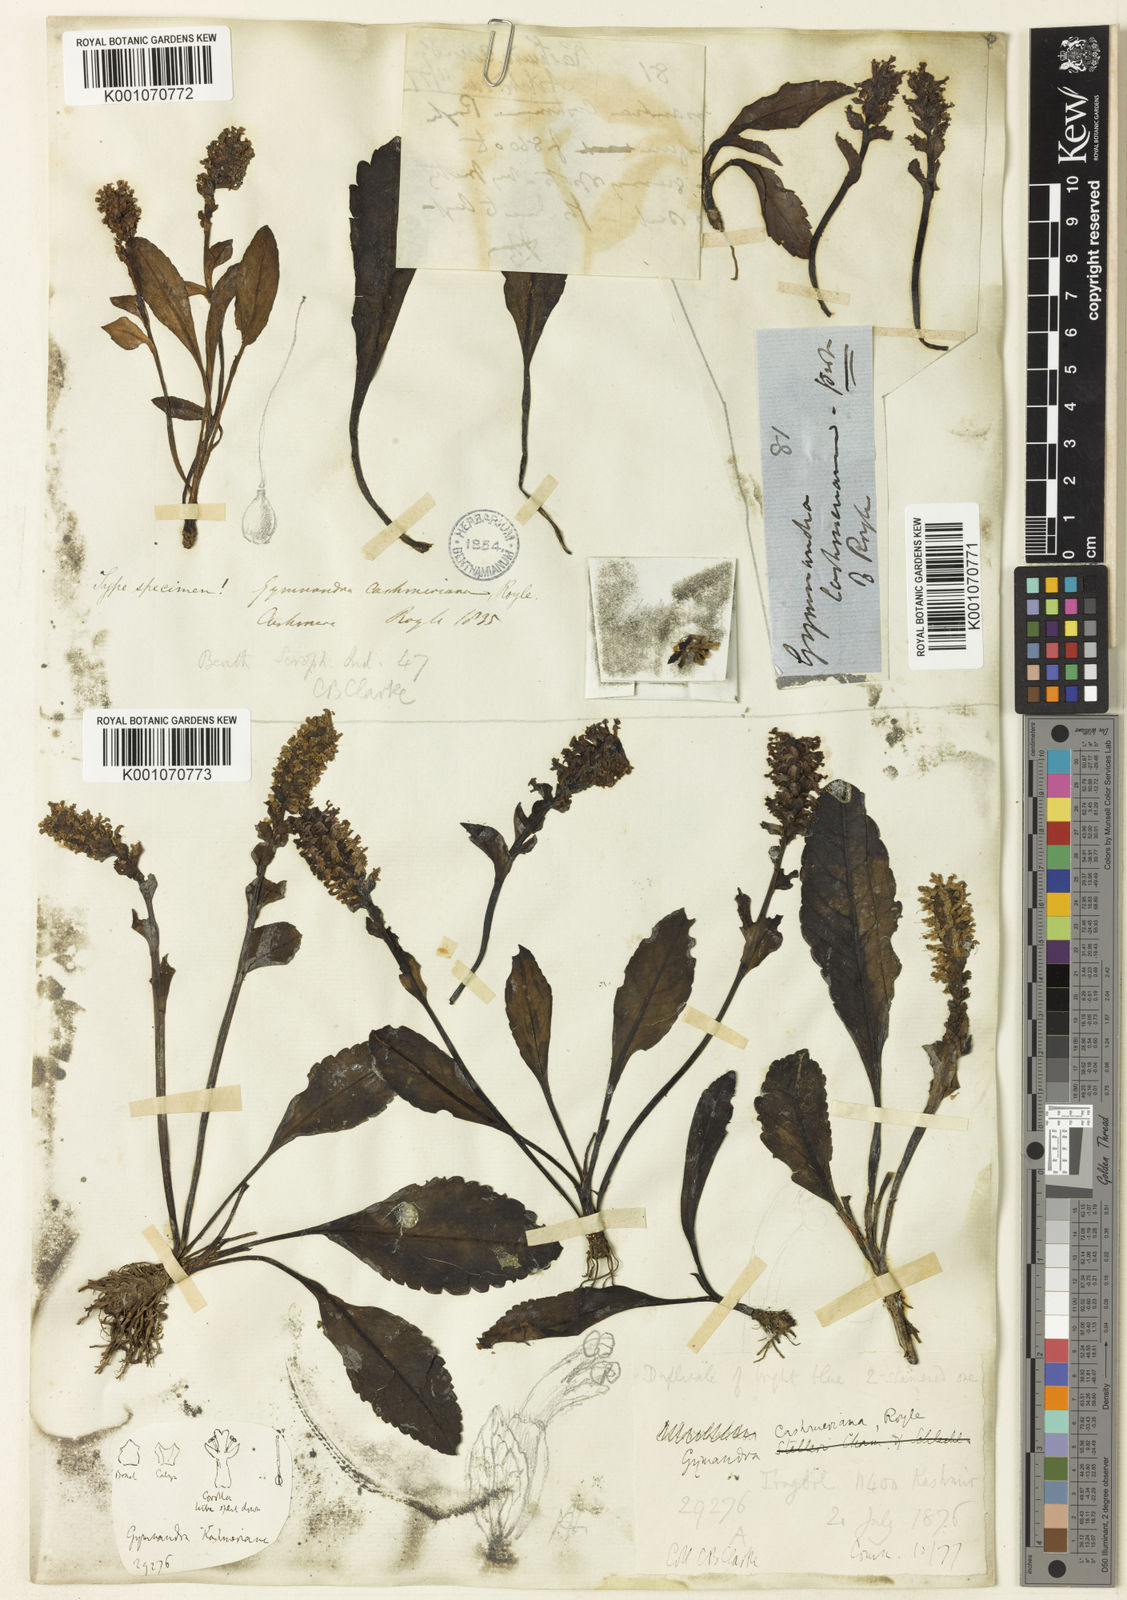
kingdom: Plantae
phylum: Tracheophyta
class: Magnoliopsida
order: Lamiales
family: Plantaginaceae
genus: Lagotis
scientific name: Lagotis cashmeriana
